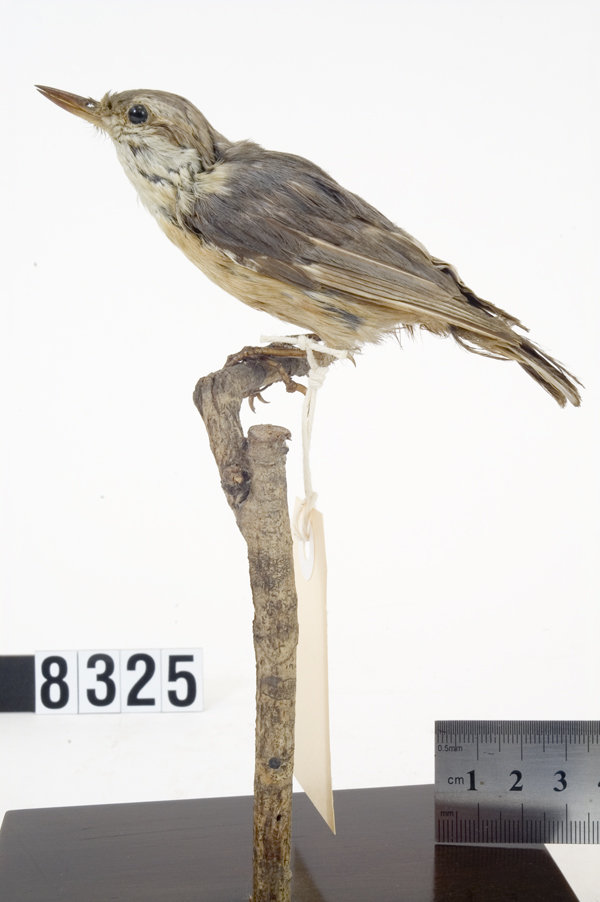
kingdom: Animalia
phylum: Chordata
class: Aves
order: Passeriformes
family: Sittidae
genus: Sitta
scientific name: Sitta europaea
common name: Eurasian nuthatch
